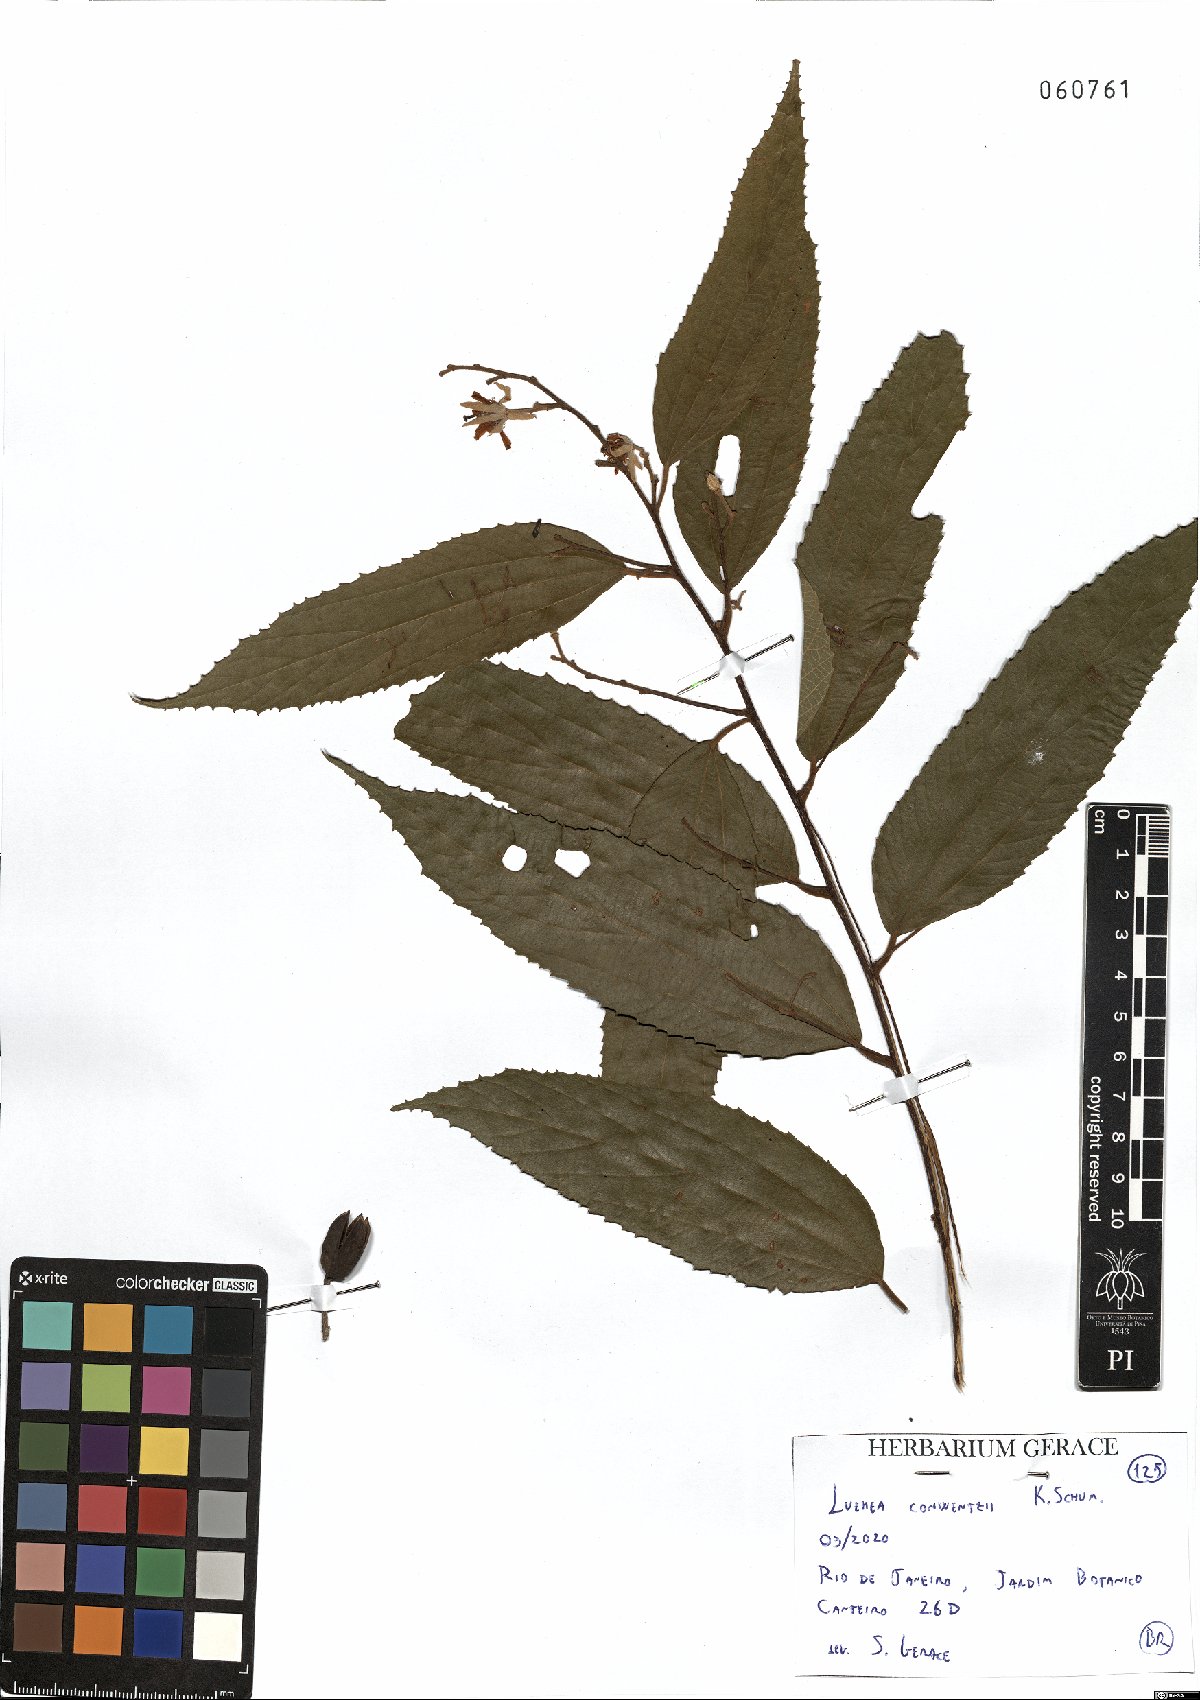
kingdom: Plantae
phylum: Tracheophyta
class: Magnoliopsida
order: Malvales
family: Malvaceae
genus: Luehea
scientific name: Luehea conwentzii
